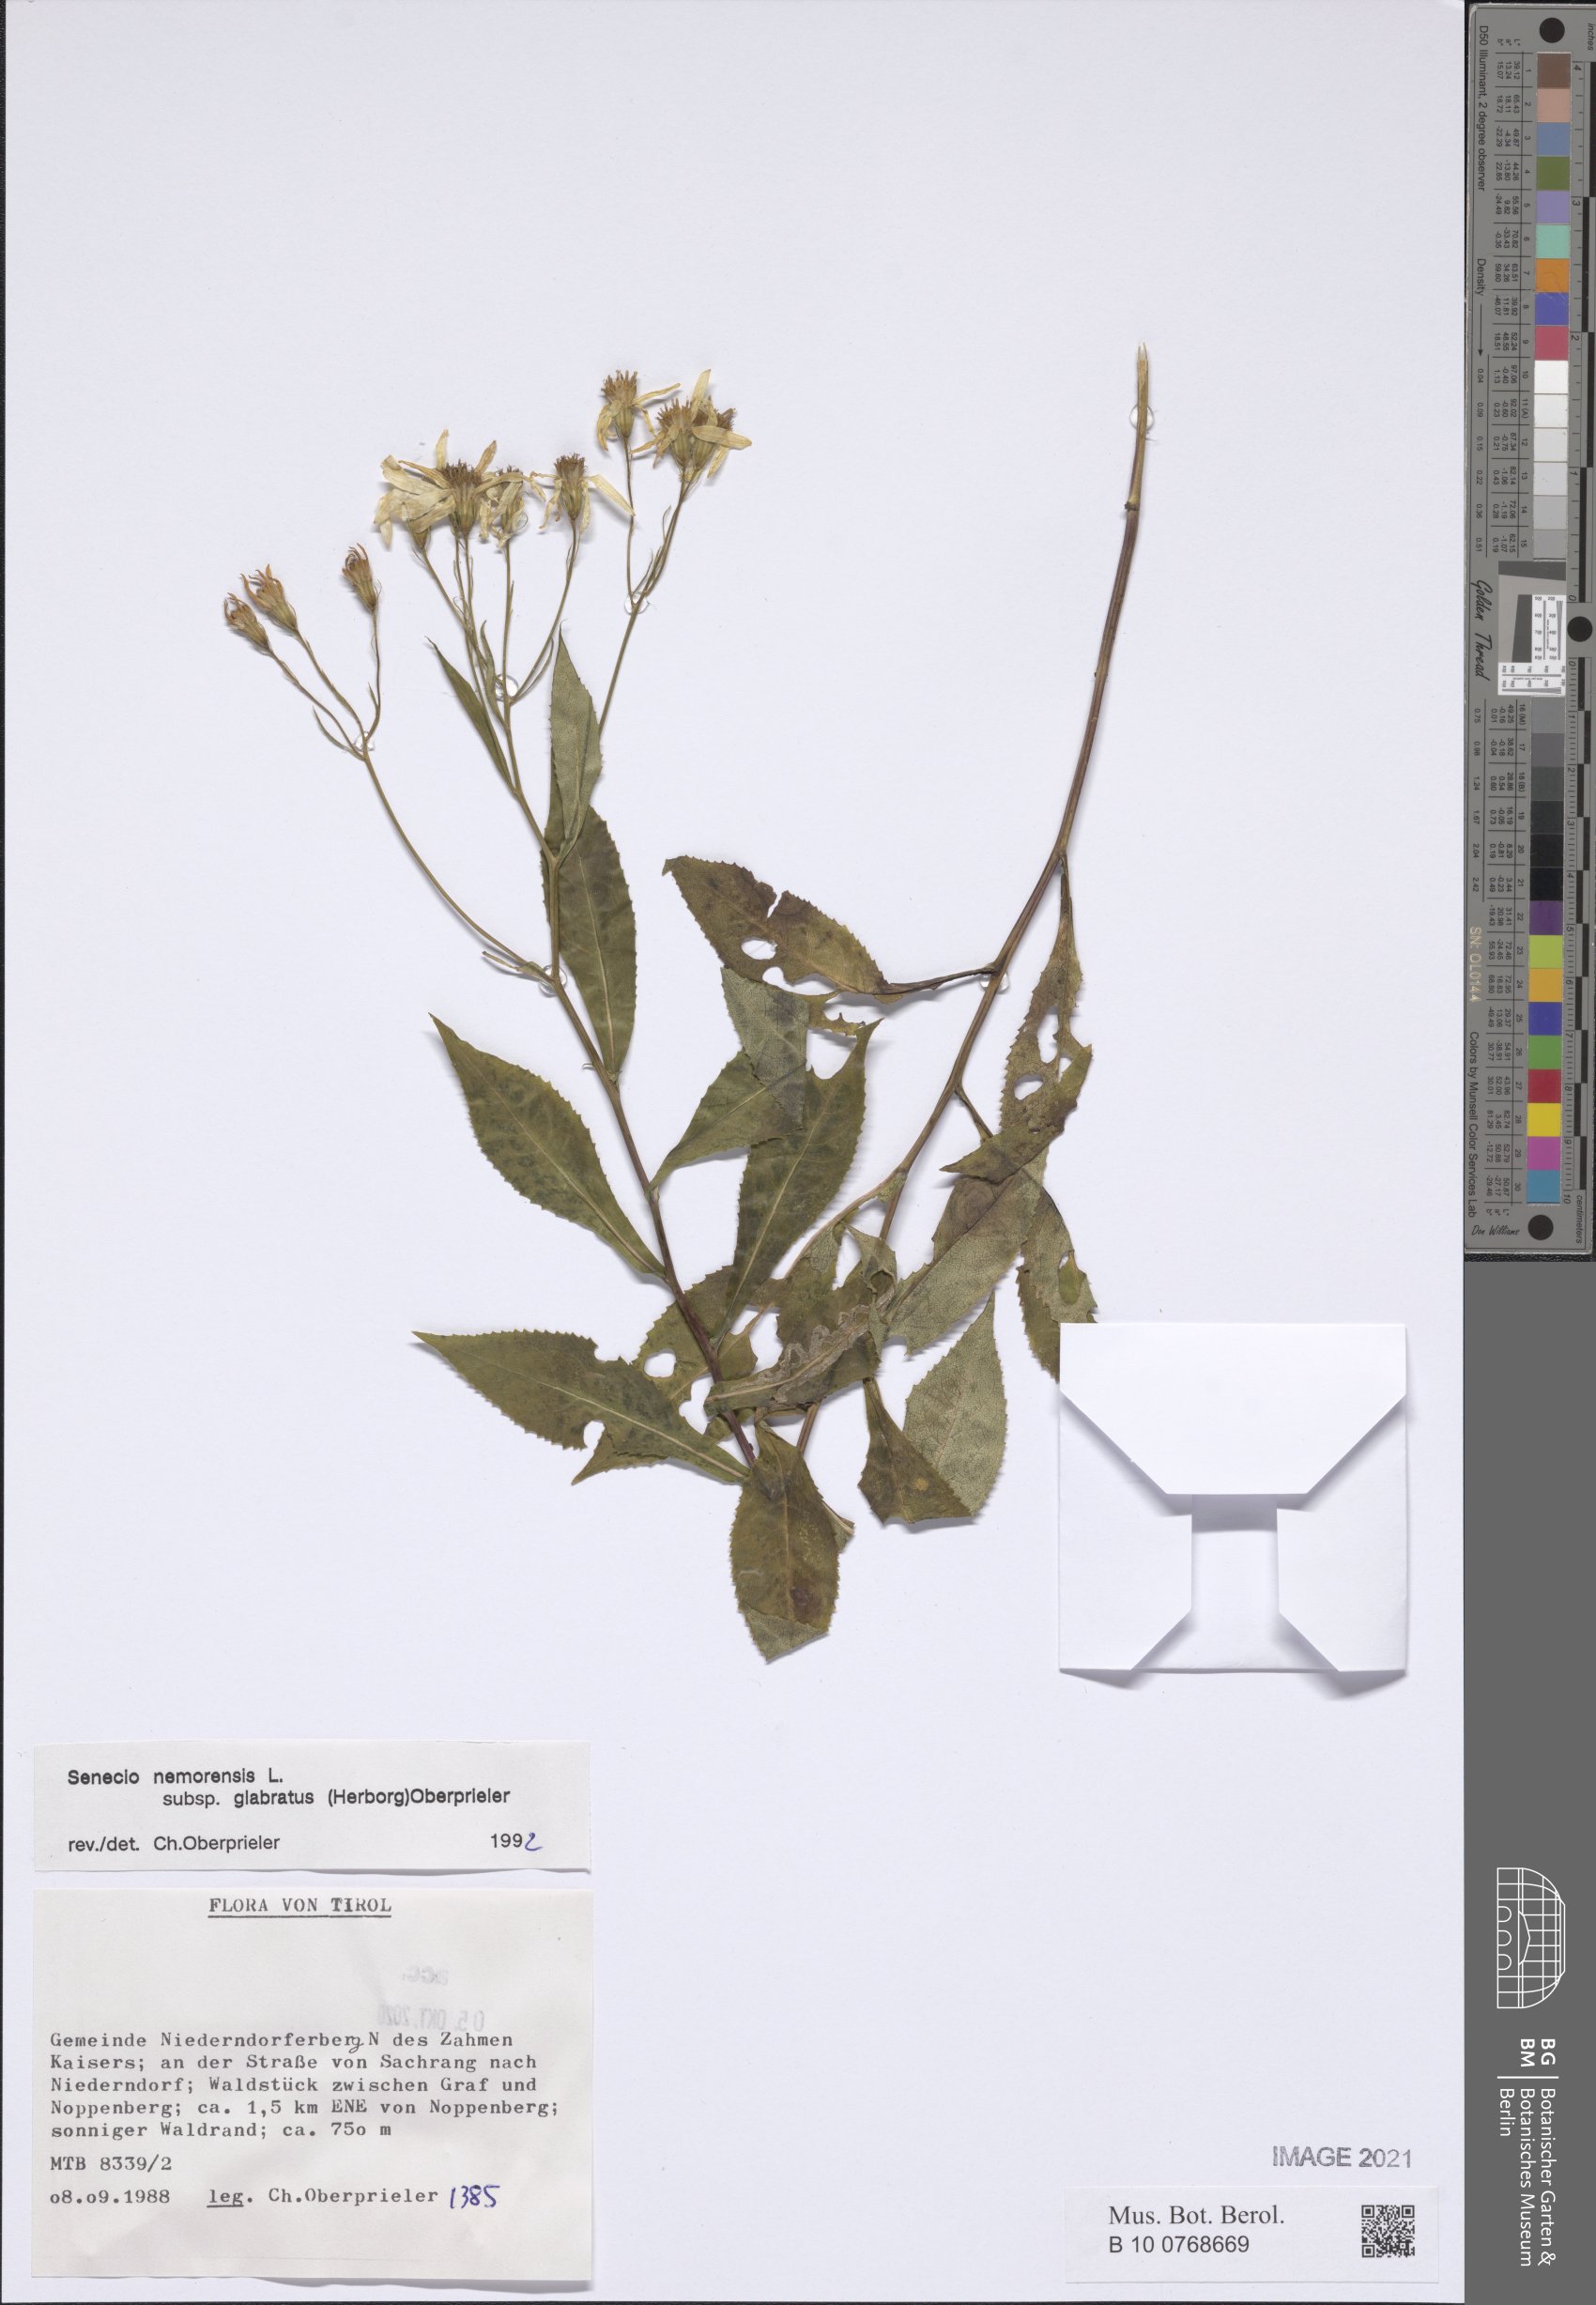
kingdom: Plantae
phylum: Tracheophyta
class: Magnoliopsida
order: Asterales
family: Asteraceae
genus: Senecio
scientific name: Senecio germanicus
